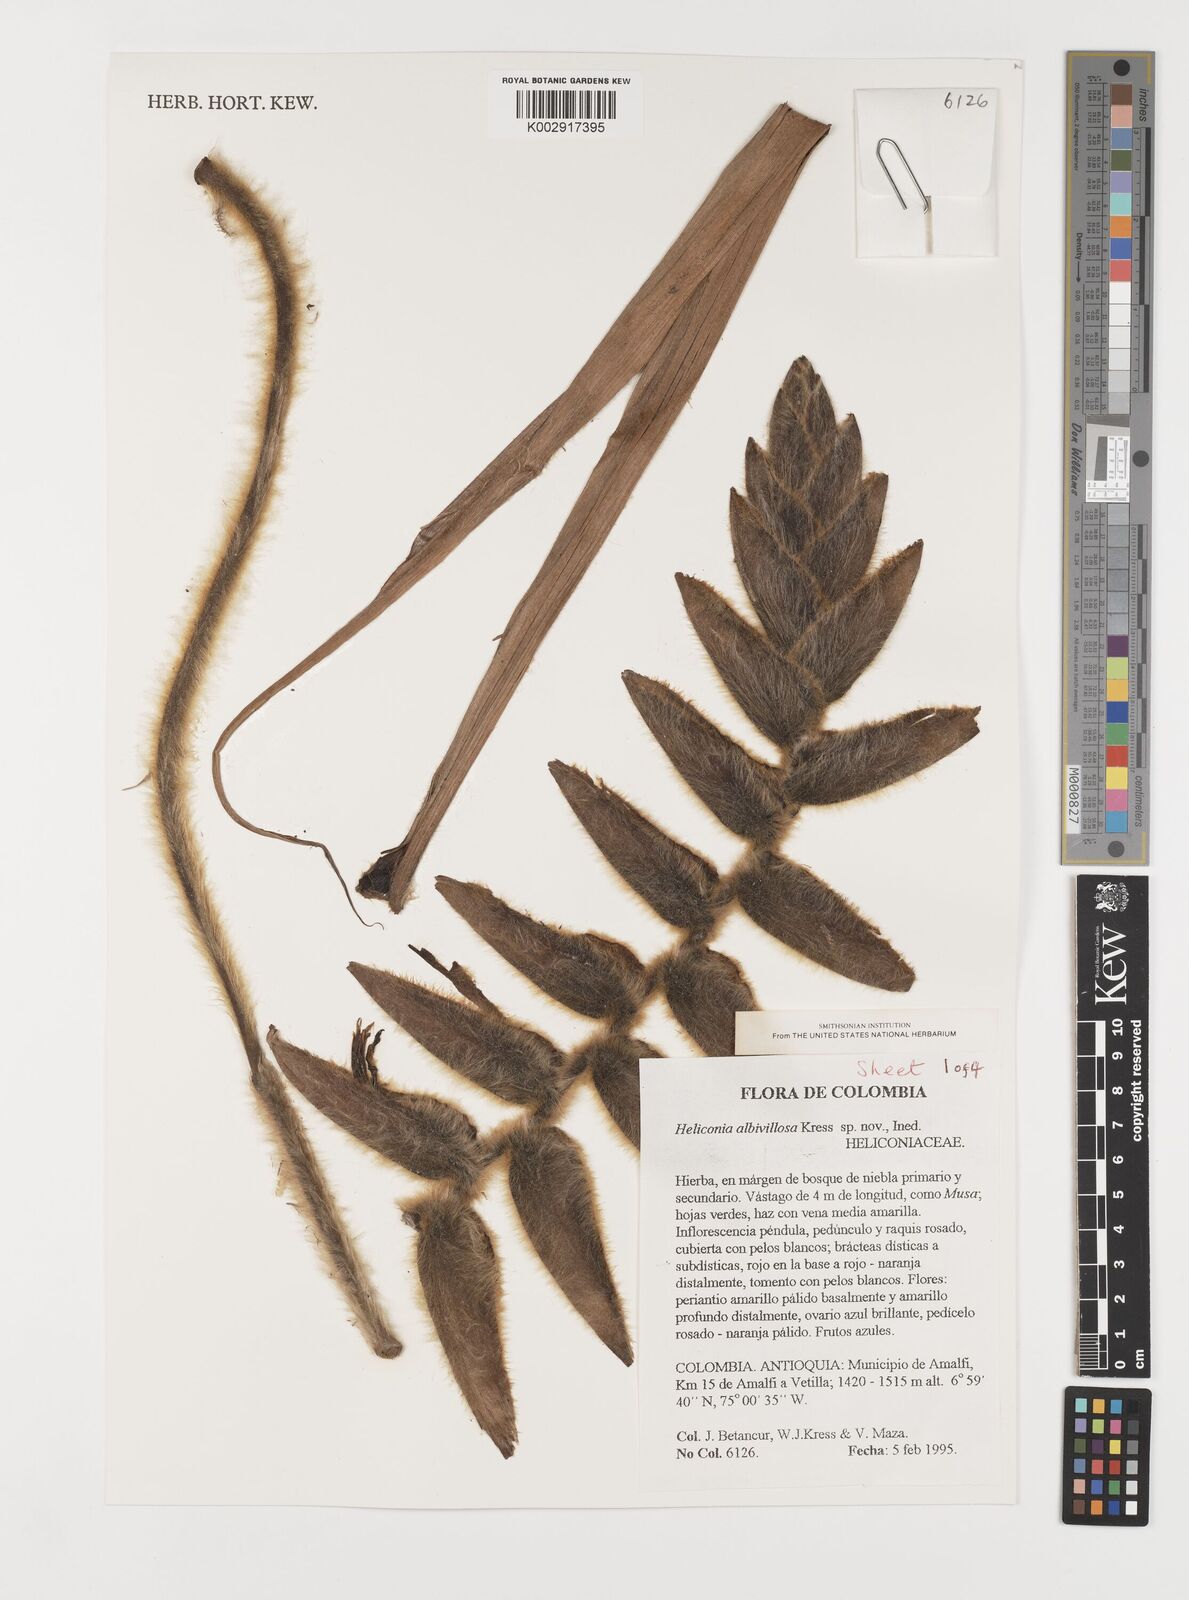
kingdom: Plantae
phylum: Tracheophyta
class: Liliopsida
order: Zingiberales
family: Heliconiaceae
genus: Heliconia
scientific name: Heliconia
